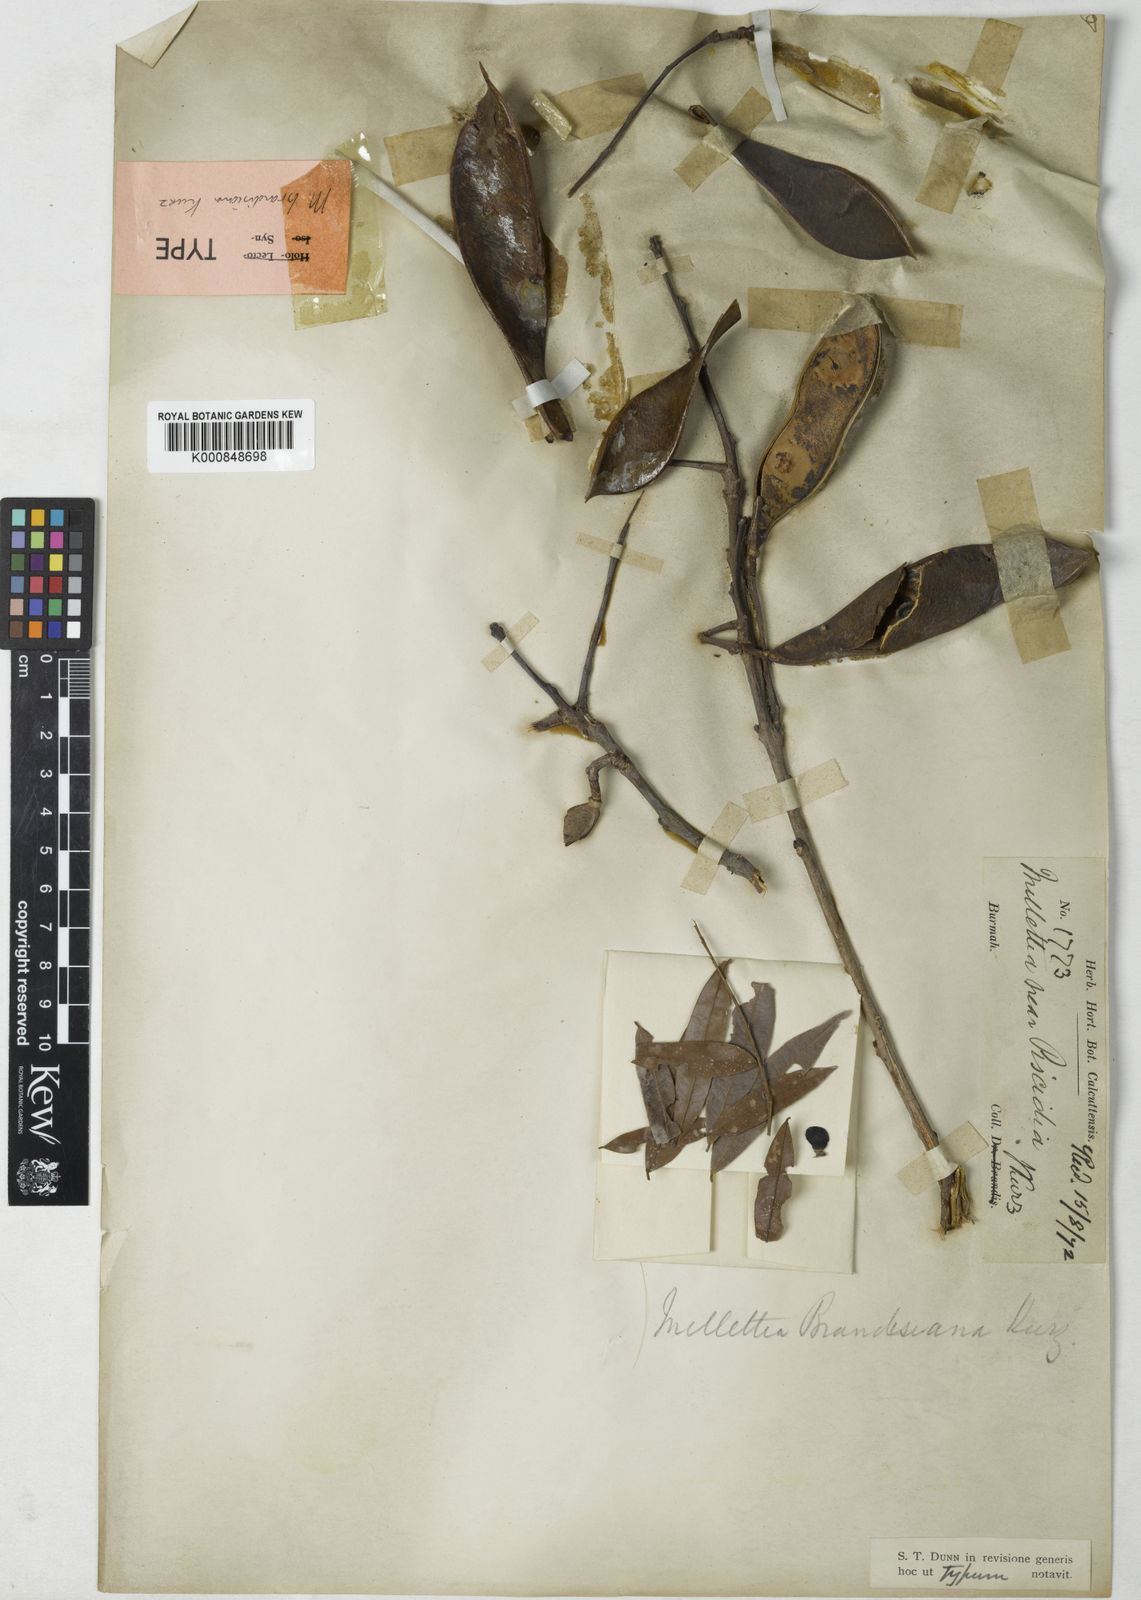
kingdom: Plantae
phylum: Tracheophyta
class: Magnoliopsida
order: Fabales
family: Fabaceae
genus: Millettia
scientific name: Millettia brandisiana
